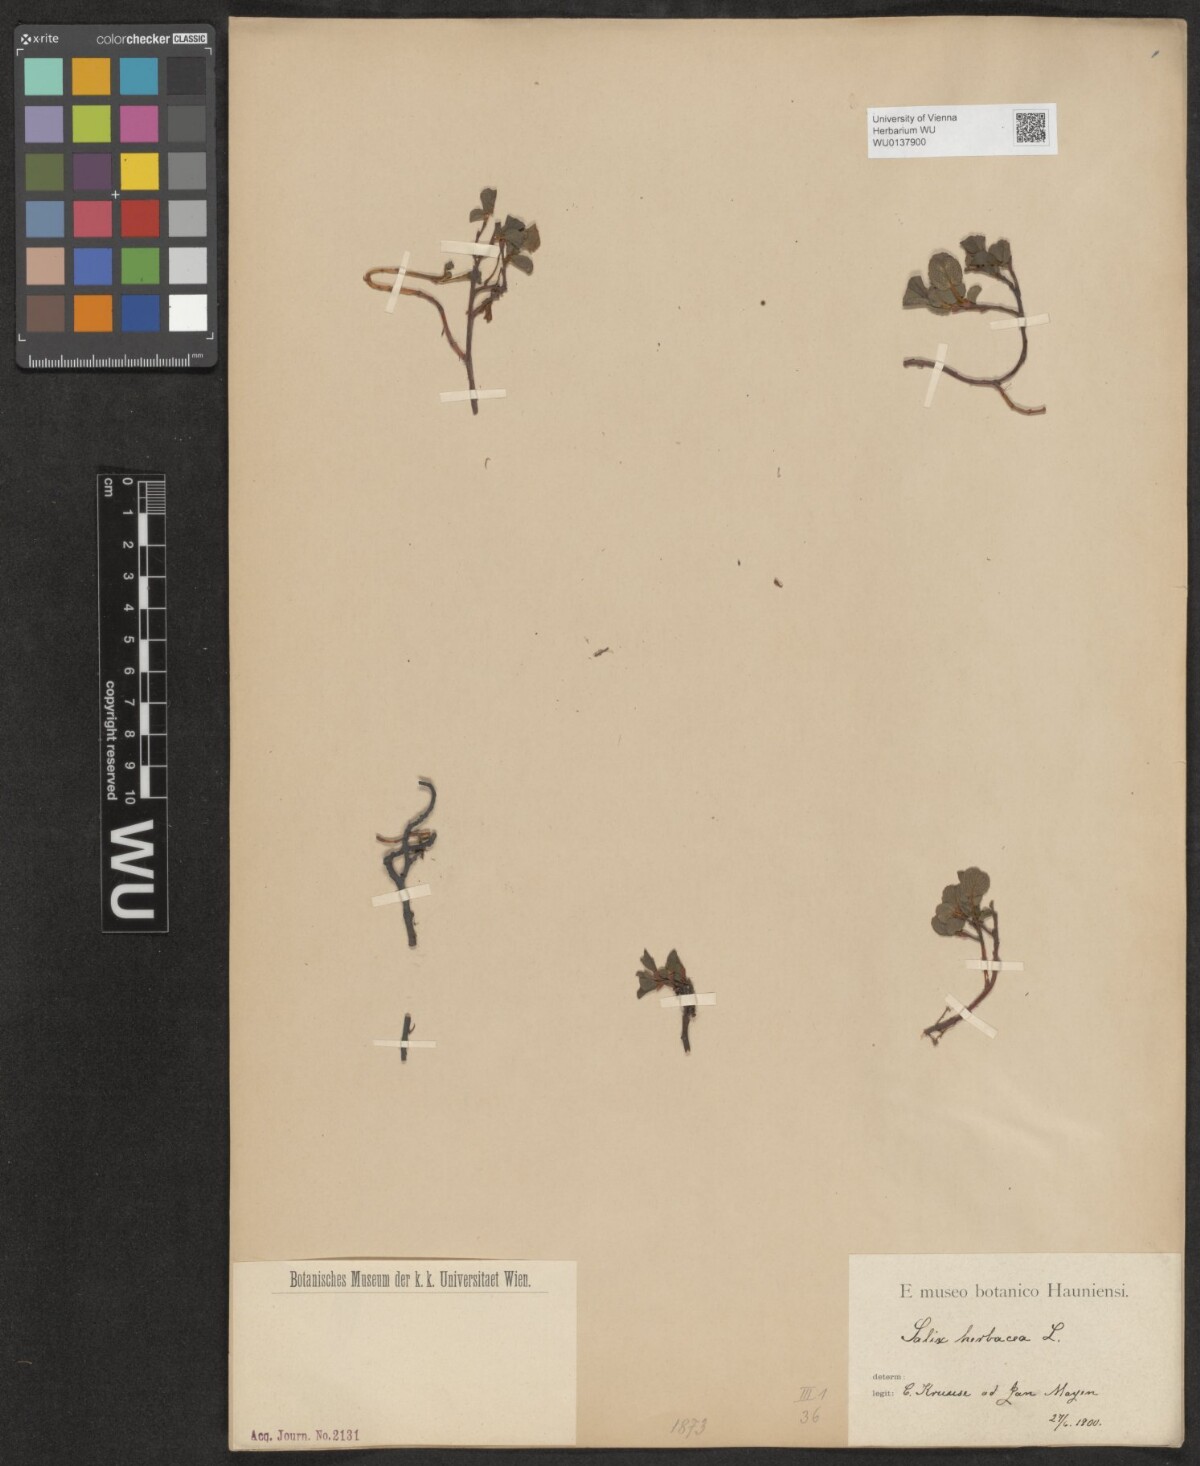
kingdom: Plantae
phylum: Tracheophyta
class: Magnoliopsida
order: Malpighiales
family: Salicaceae
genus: Salix
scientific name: Salix herbacea
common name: Dwarf willow
